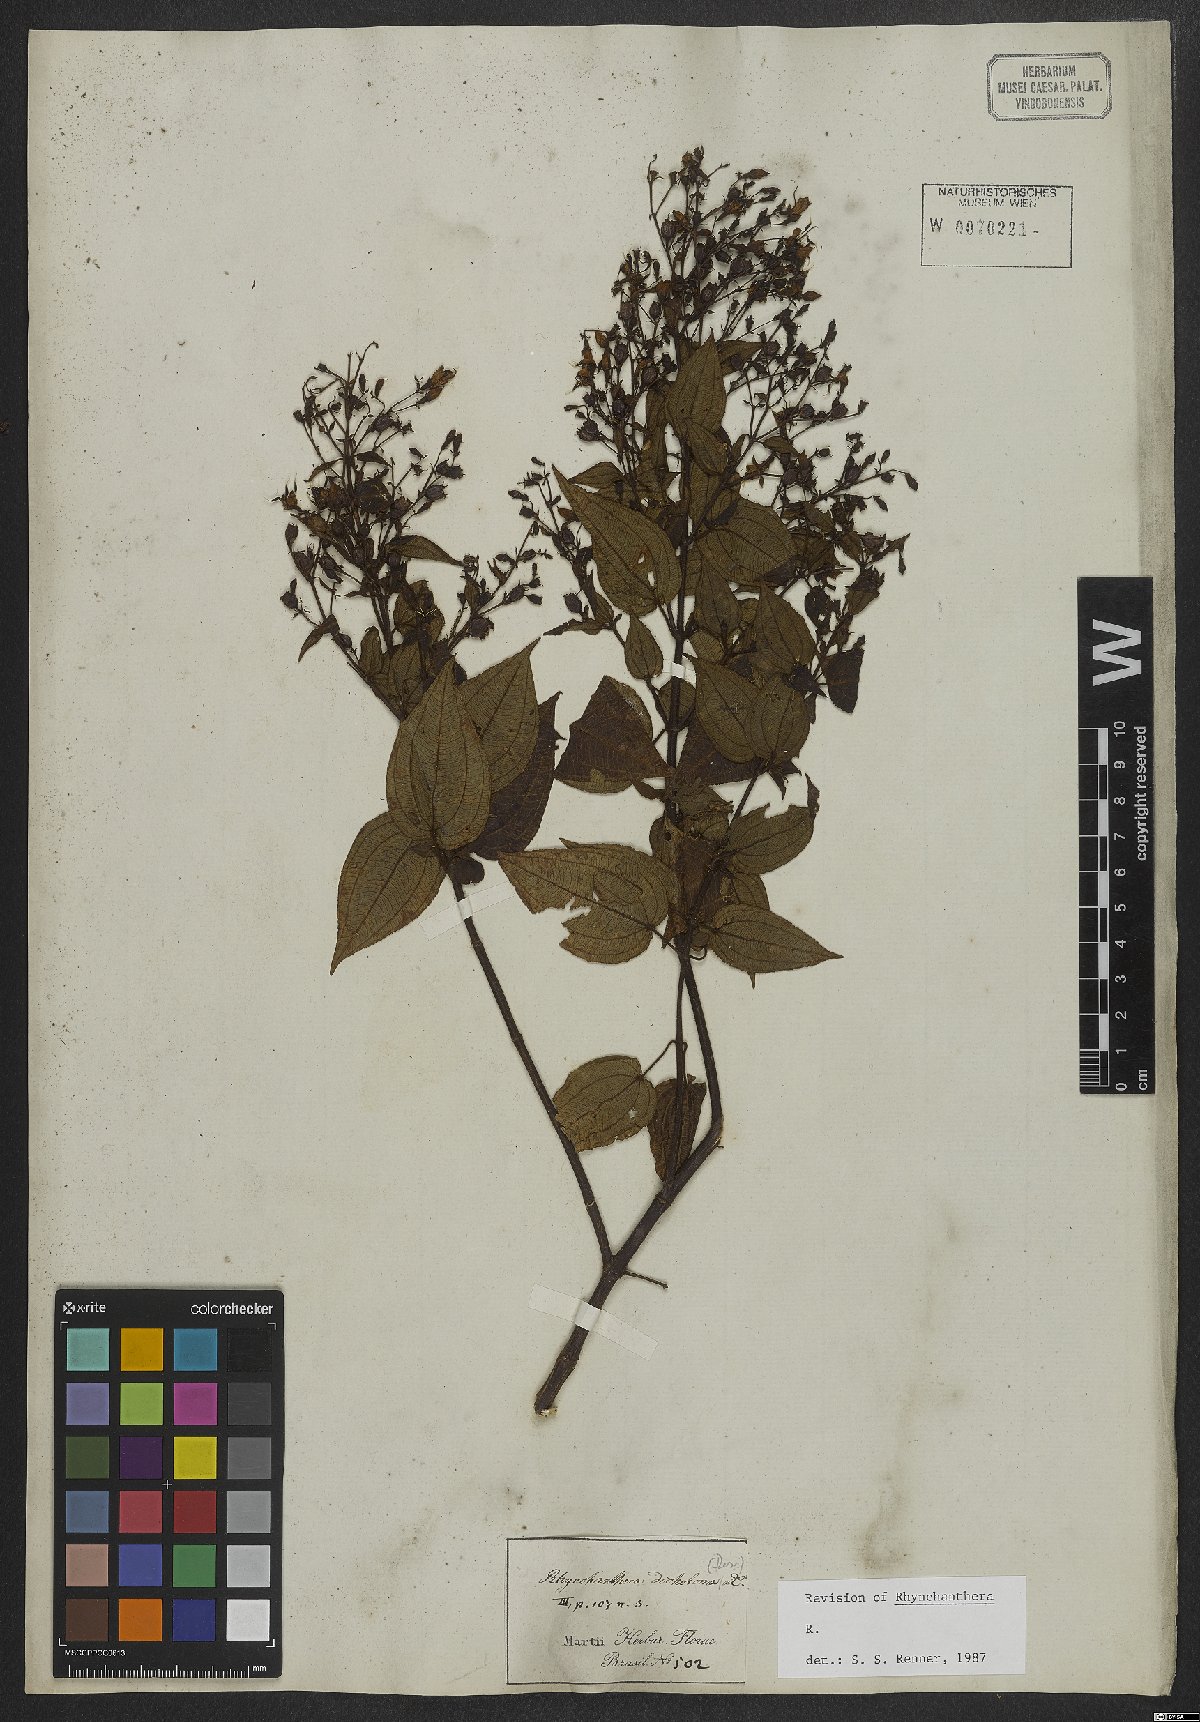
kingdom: Plantae
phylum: Tracheophyta
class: Magnoliopsida
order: Myrtales
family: Melastomataceae
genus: Rhynchanthera
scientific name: Rhynchanthera dichotoma
